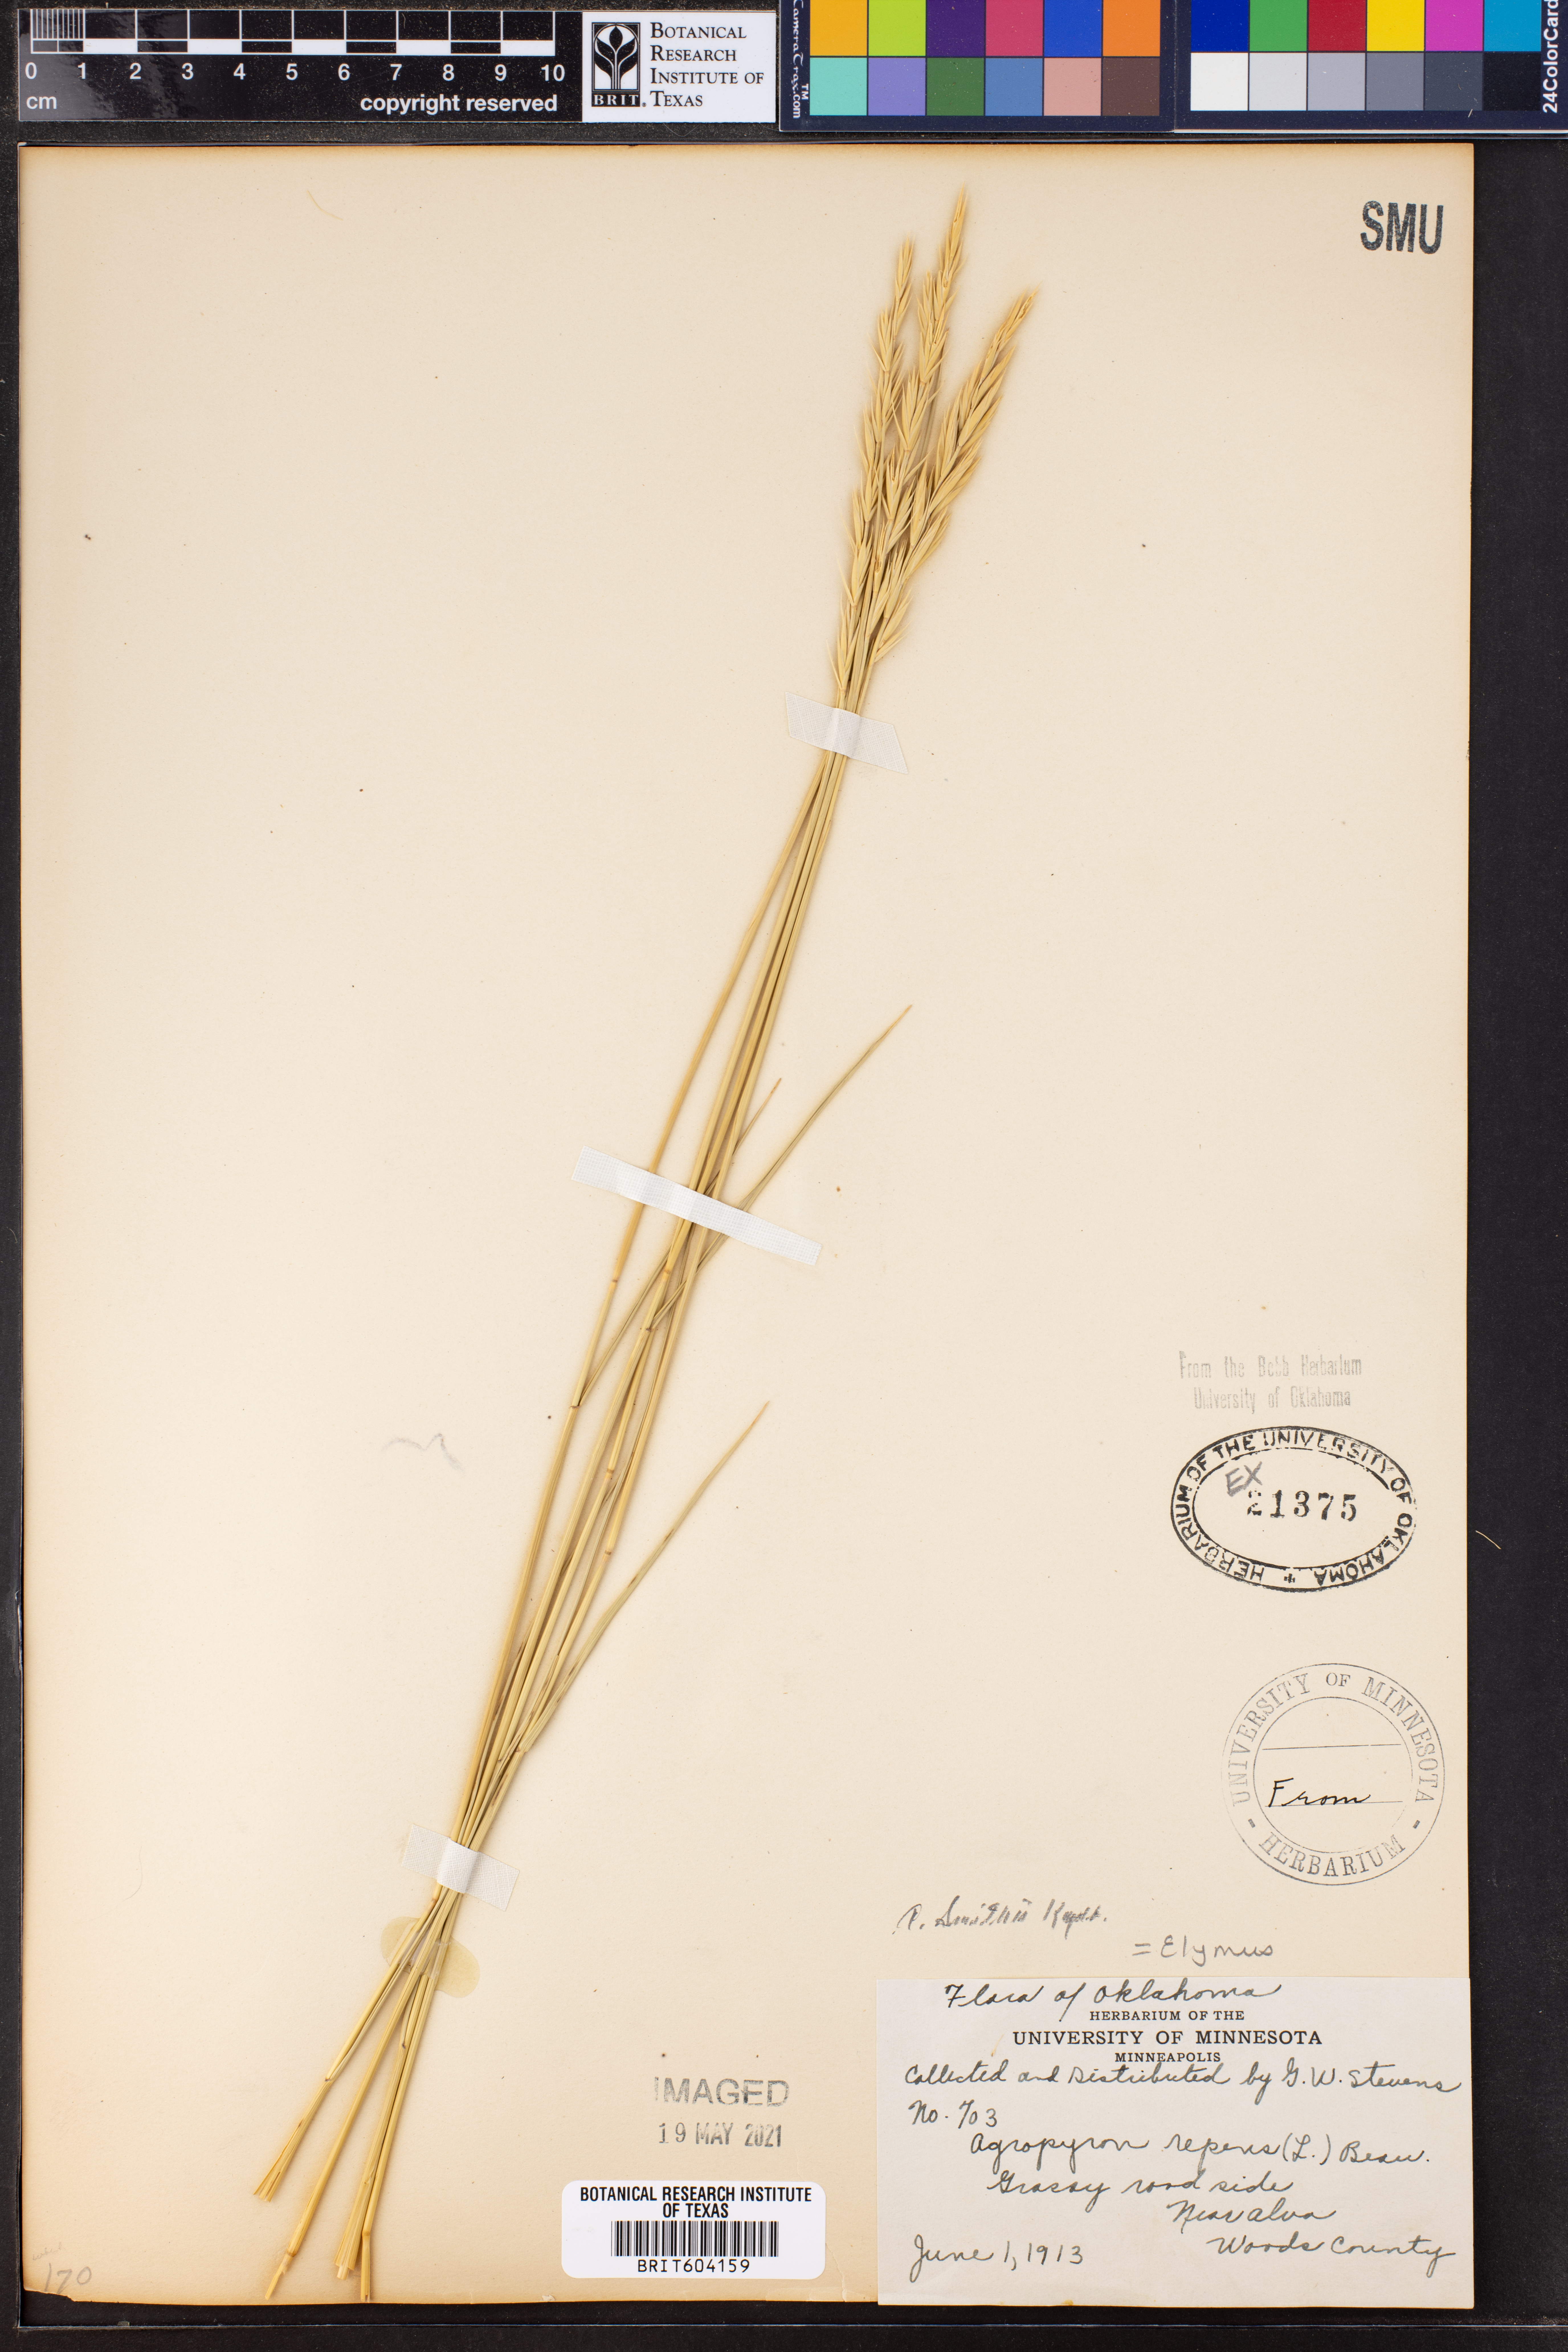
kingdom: Plantae
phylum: Tracheophyta
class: Liliopsida
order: Poales
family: Poaceae
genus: Elymus
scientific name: Elymus repens
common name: Quackgrass
